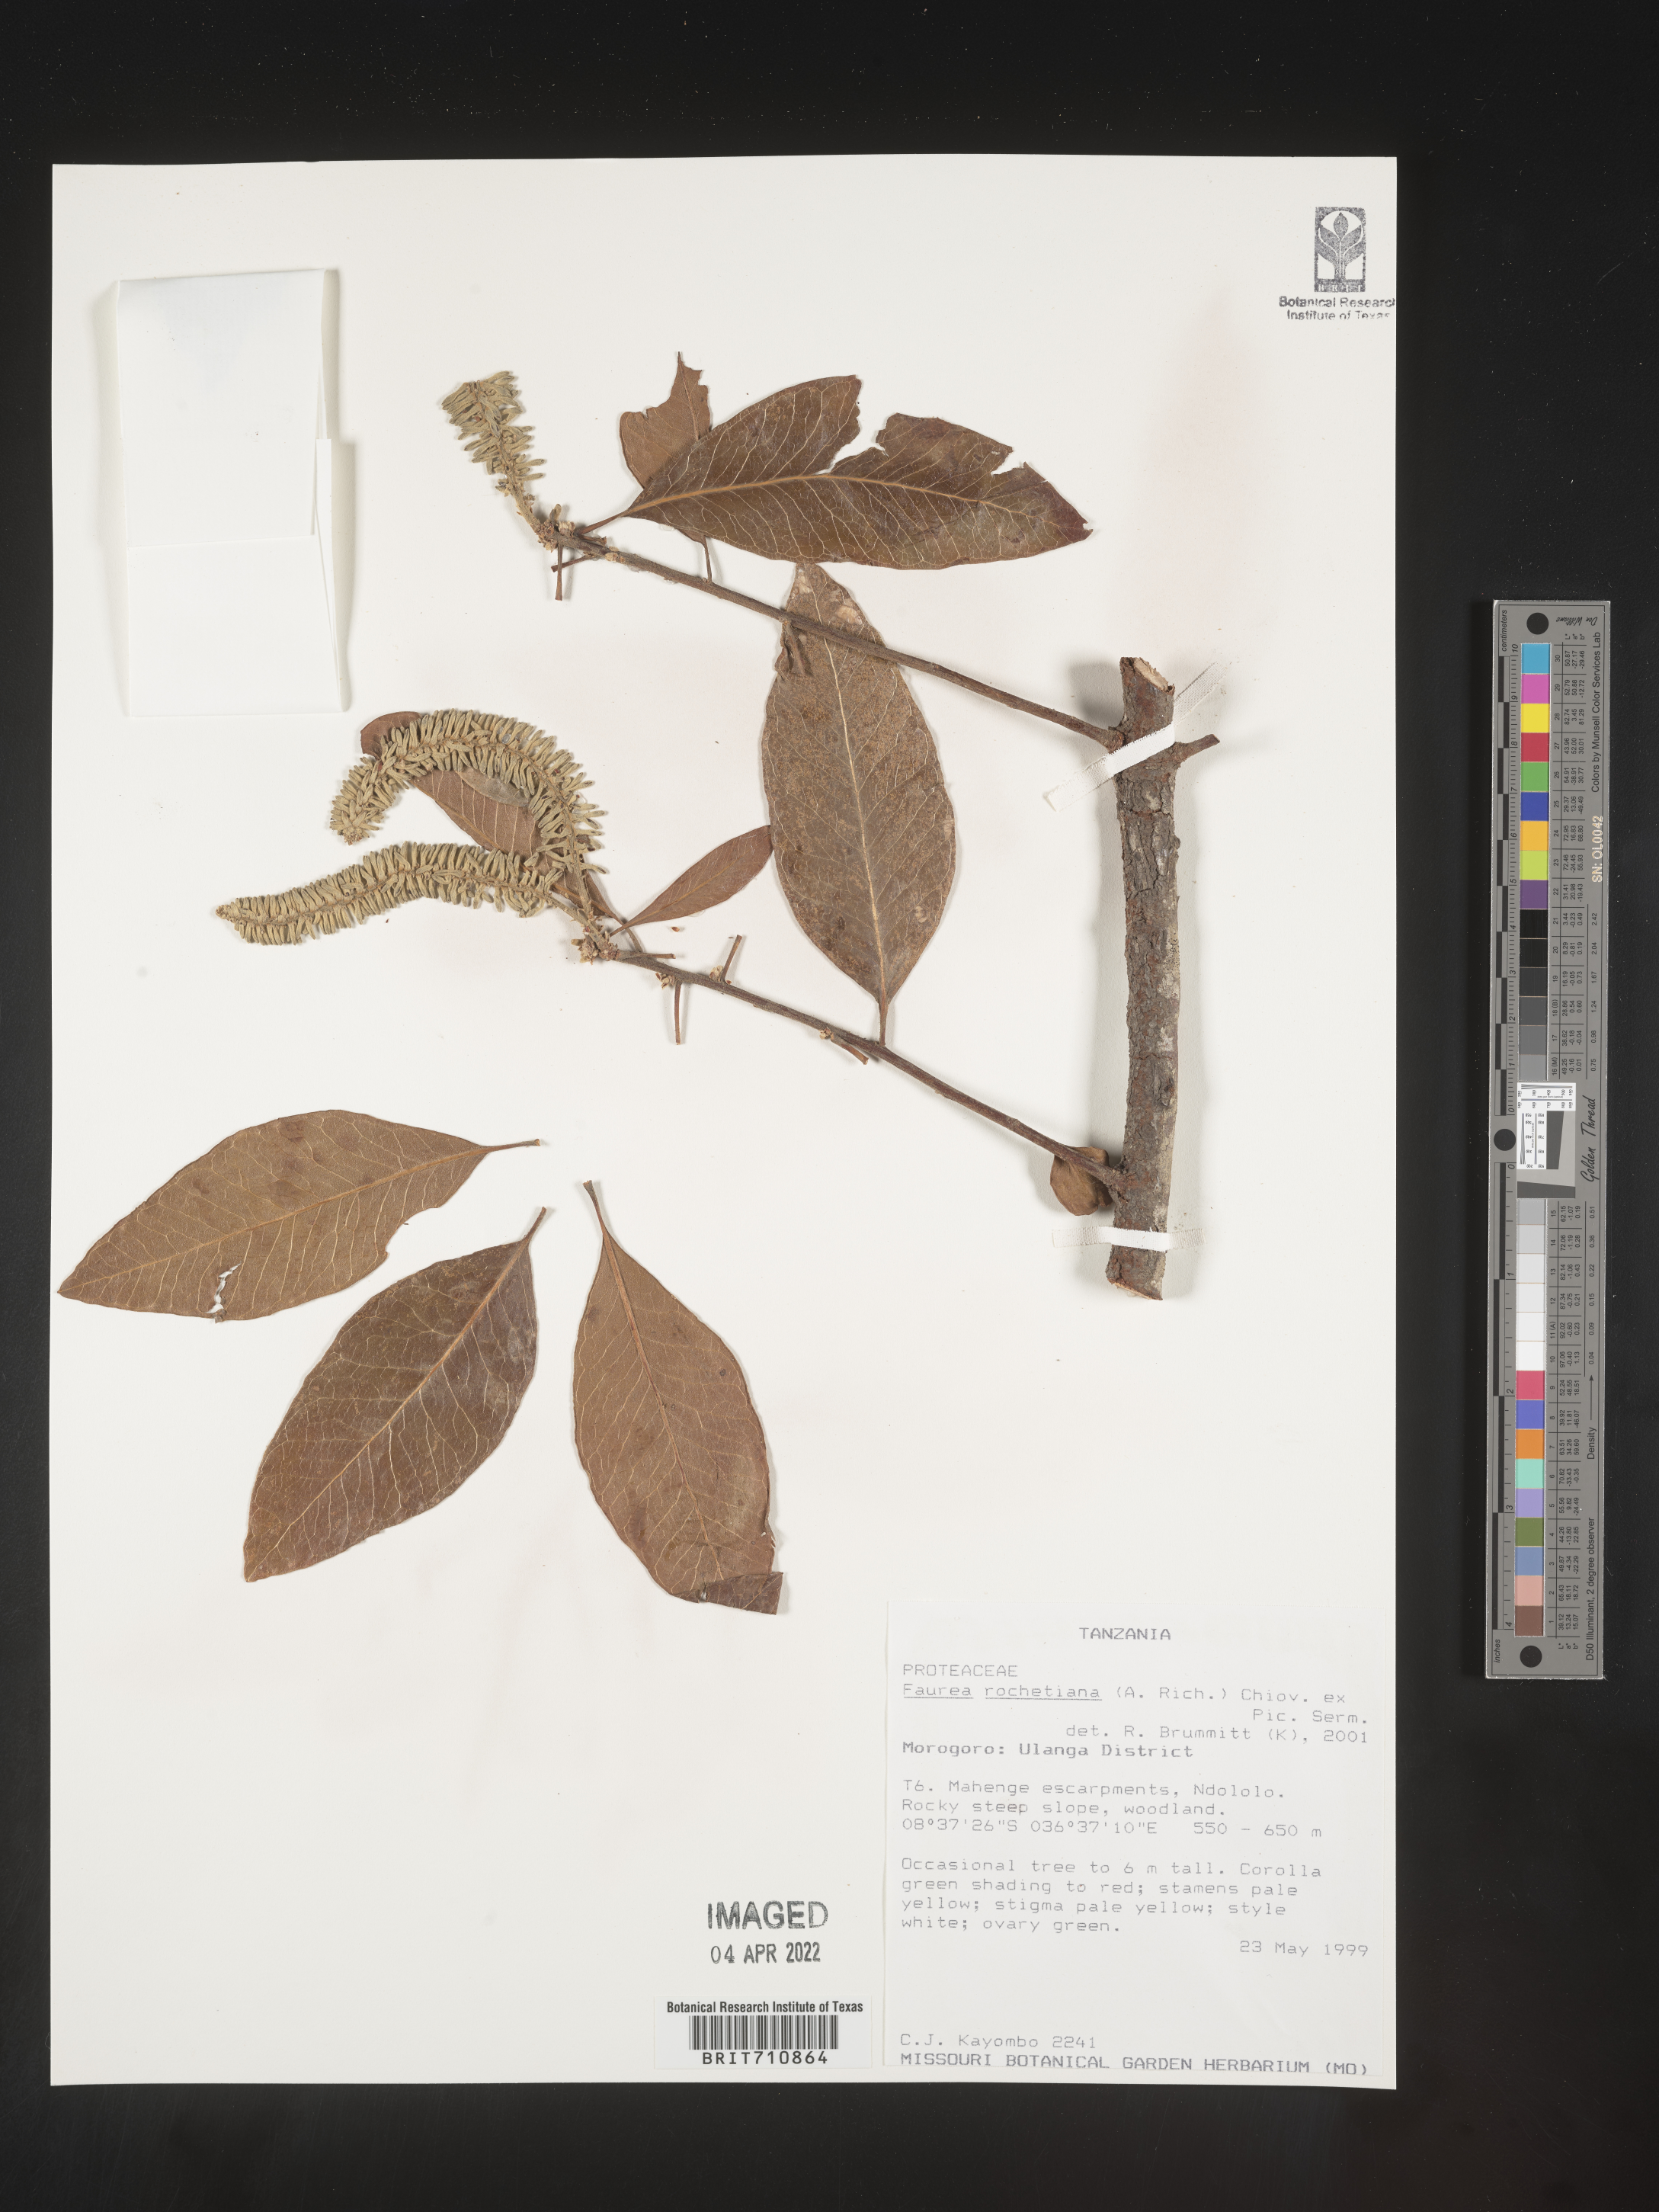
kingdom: Plantae
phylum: Tracheophyta
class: Magnoliopsida
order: Proteales
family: Proteaceae
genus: Faurea
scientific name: Faurea
